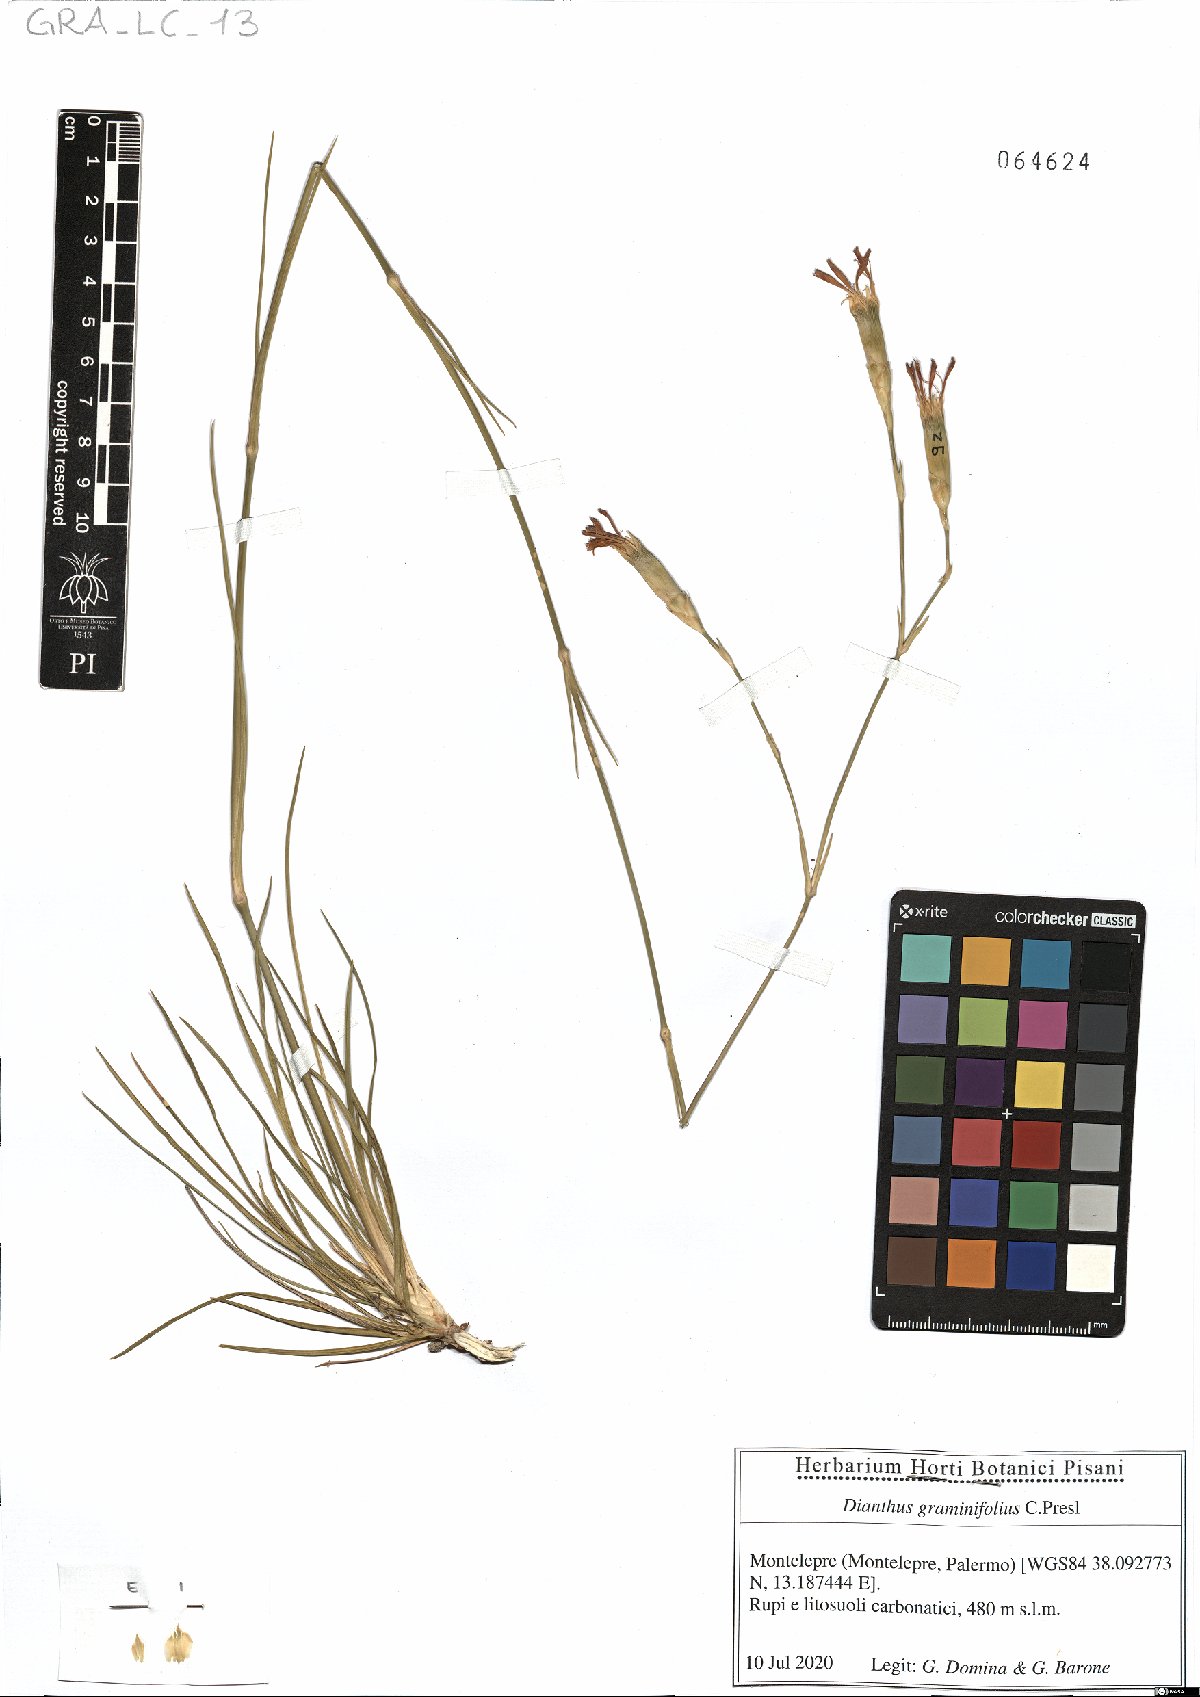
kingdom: Plantae
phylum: Tracheophyta
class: Magnoliopsida
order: Caryophyllales
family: Caryophyllaceae
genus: Dianthus
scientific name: Dianthus graminifolius
